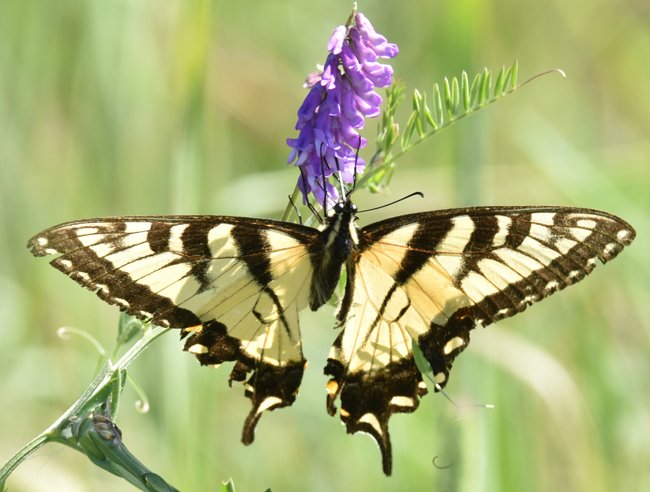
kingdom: Animalia
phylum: Arthropoda
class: Insecta
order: Lepidoptera
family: Papilionidae
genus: Pterourus
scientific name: Pterourus glaucus
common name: Eastern Tiger Swallowtail
